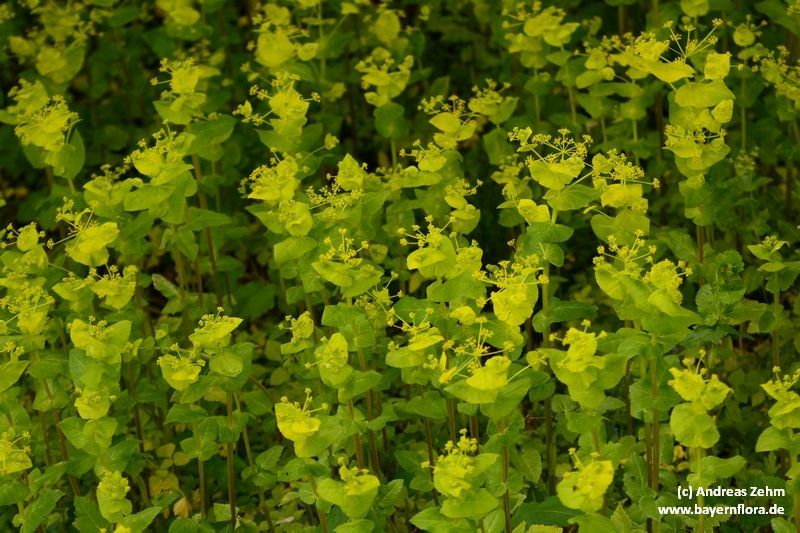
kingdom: Plantae
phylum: Tracheophyta
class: Magnoliopsida
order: Apiales
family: Apiaceae
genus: Smyrnium
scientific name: Smyrnium perfoliatum
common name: Perfoliate alexanders
